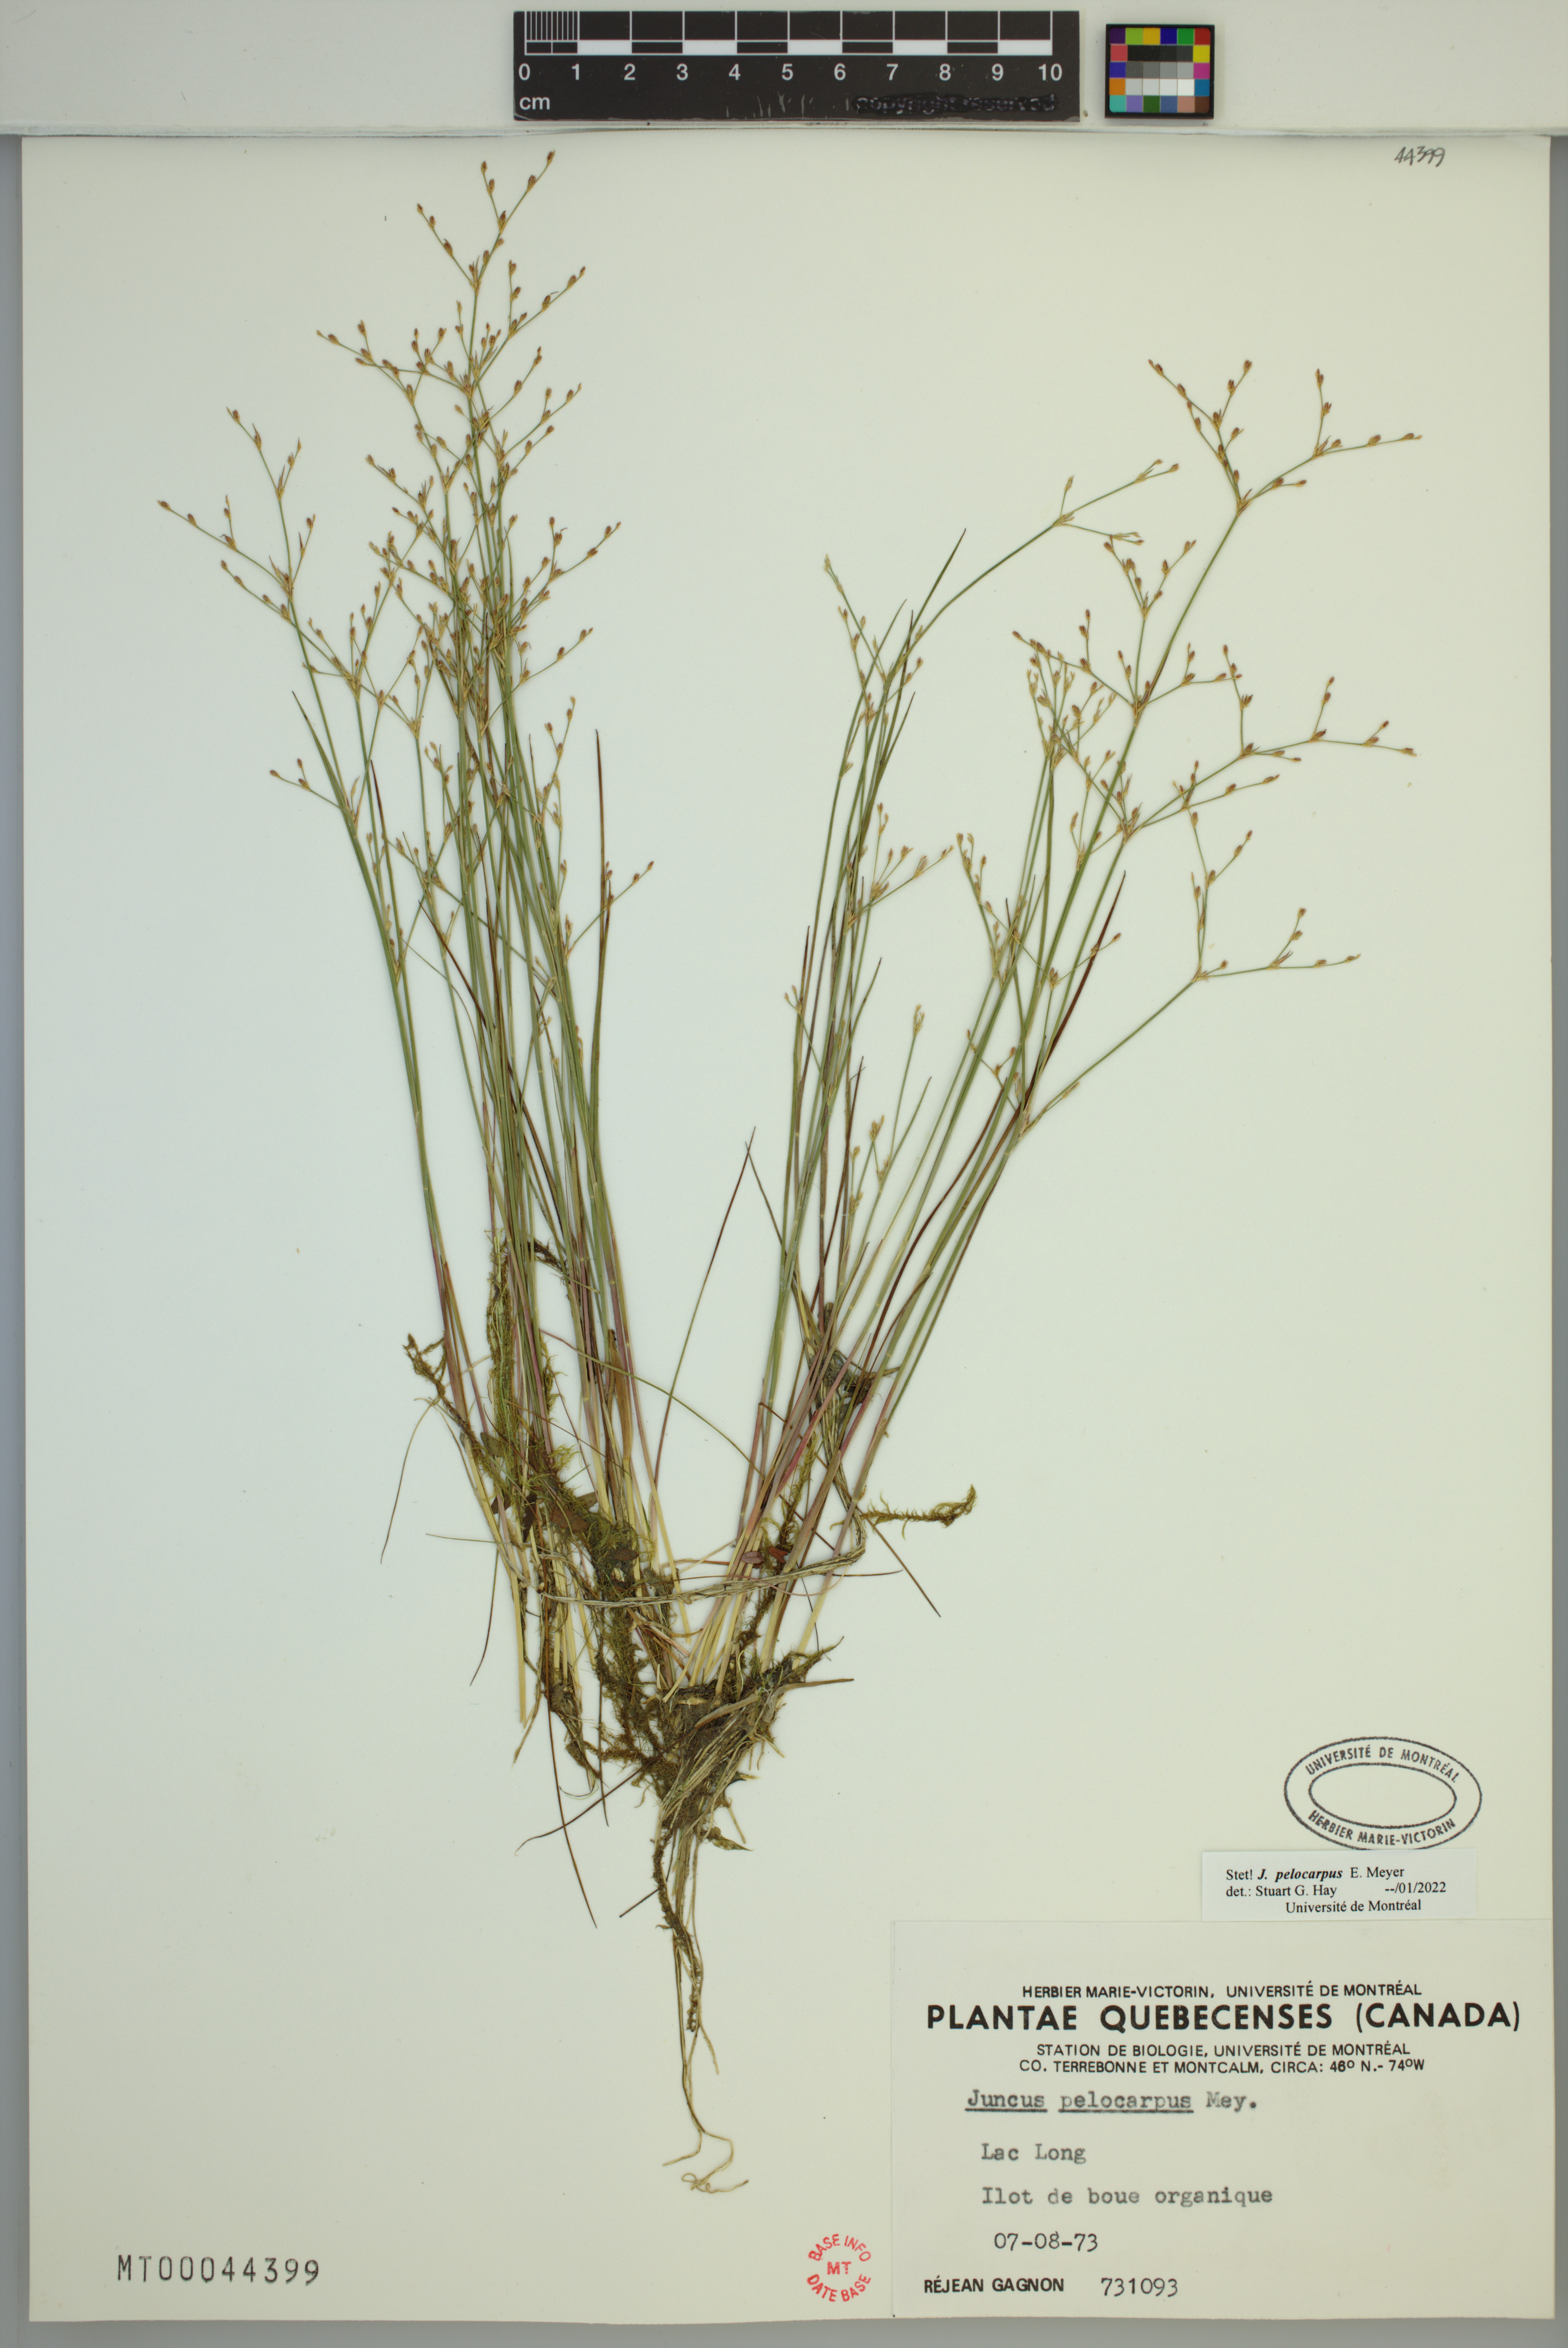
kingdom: Plantae
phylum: Tracheophyta
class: Liliopsida
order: Poales
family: Juncaceae
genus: Juncus
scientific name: Juncus pelocarpus
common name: Brown-fruited rush
